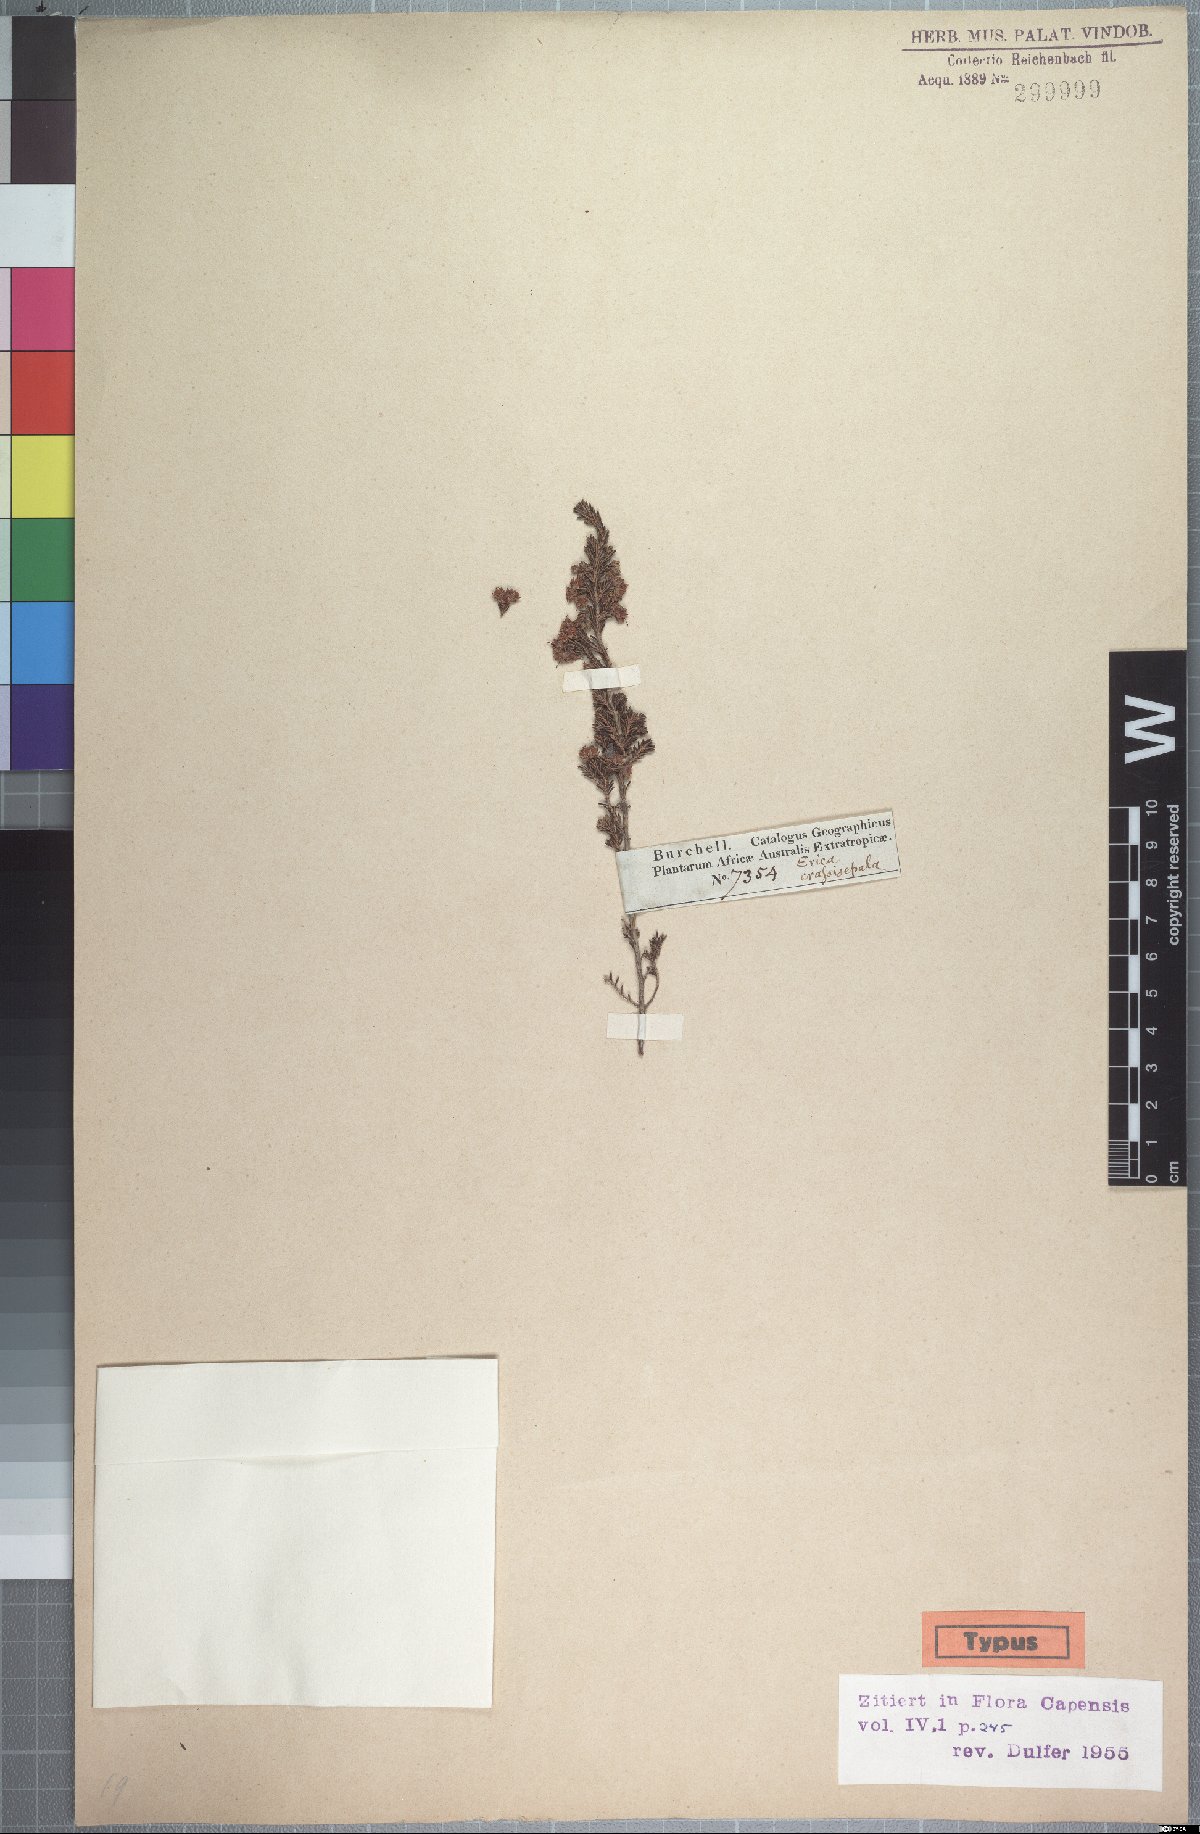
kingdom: Plantae
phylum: Tracheophyta
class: Magnoliopsida
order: Ericales
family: Ericaceae
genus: Erica
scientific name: Erica crassisepala
